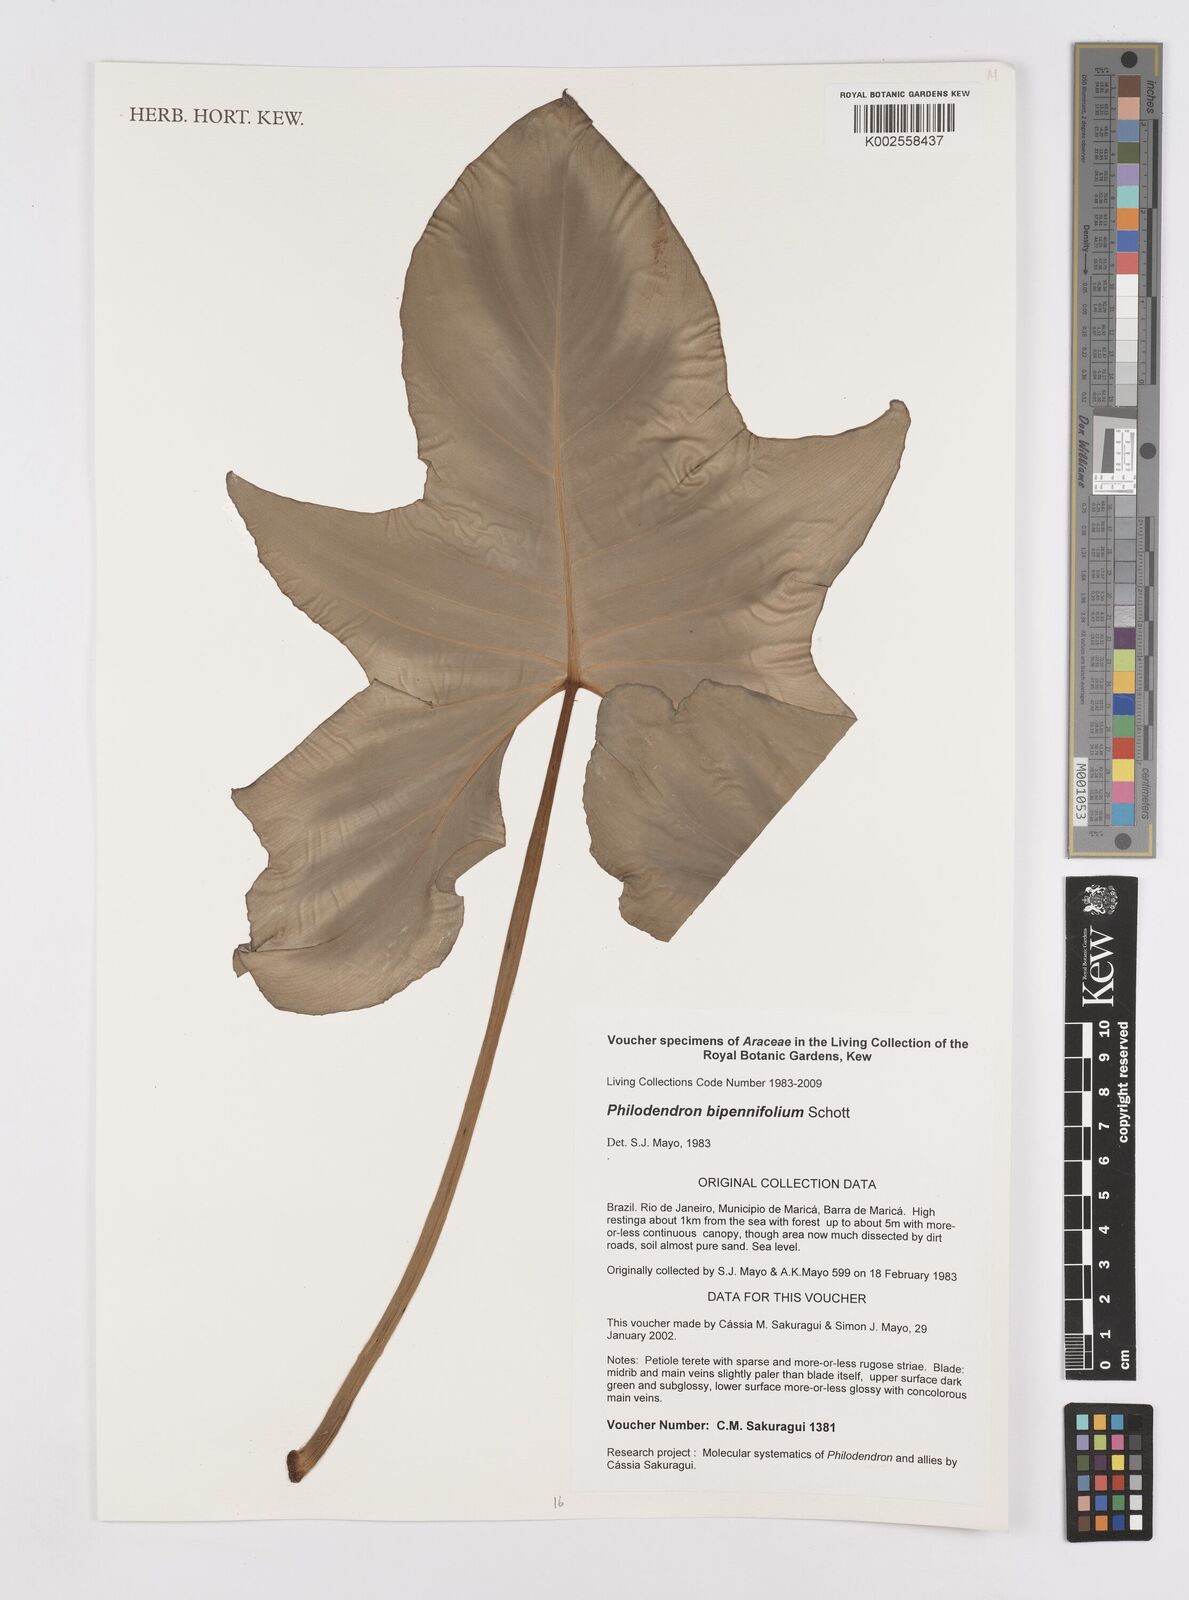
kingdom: Plantae
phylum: Tracheophyta
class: Liliopsida
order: Alismatales
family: Araceae
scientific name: Araceae
